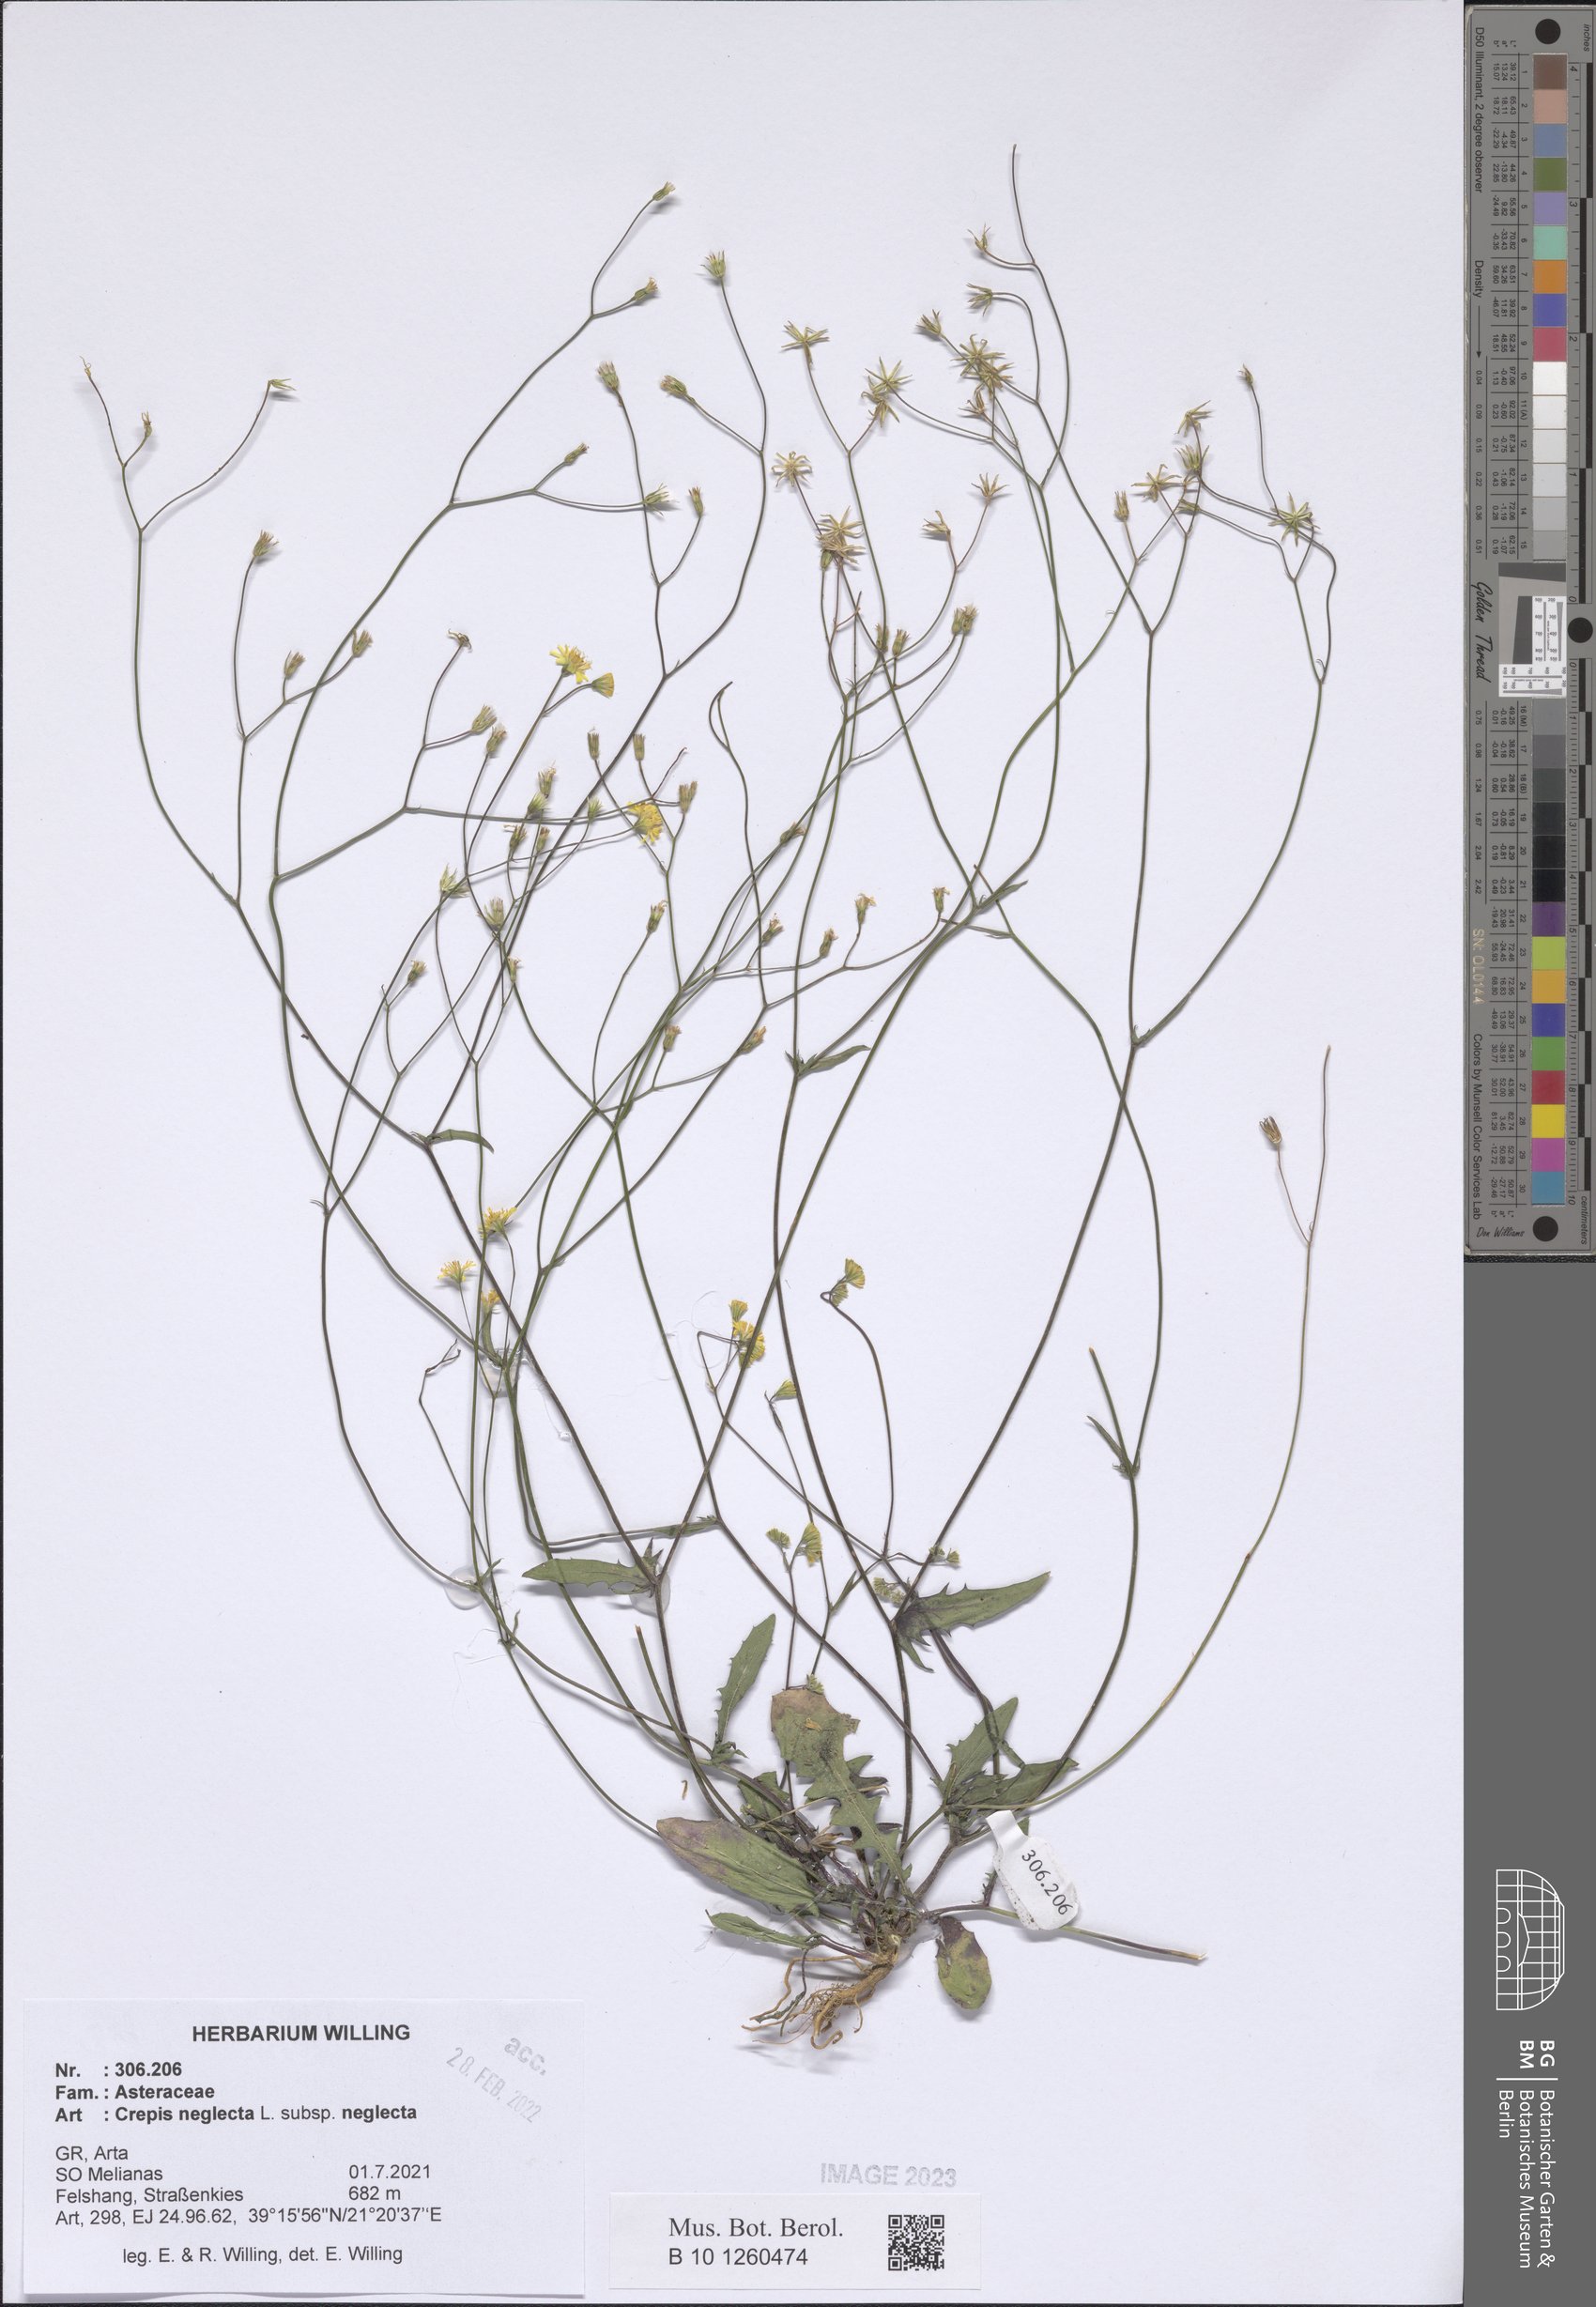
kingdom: Plantae
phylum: Tracheophyta
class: Magnoliopsida
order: Asterales
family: Asteraceae
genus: Crepis
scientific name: Crepis neglecta
